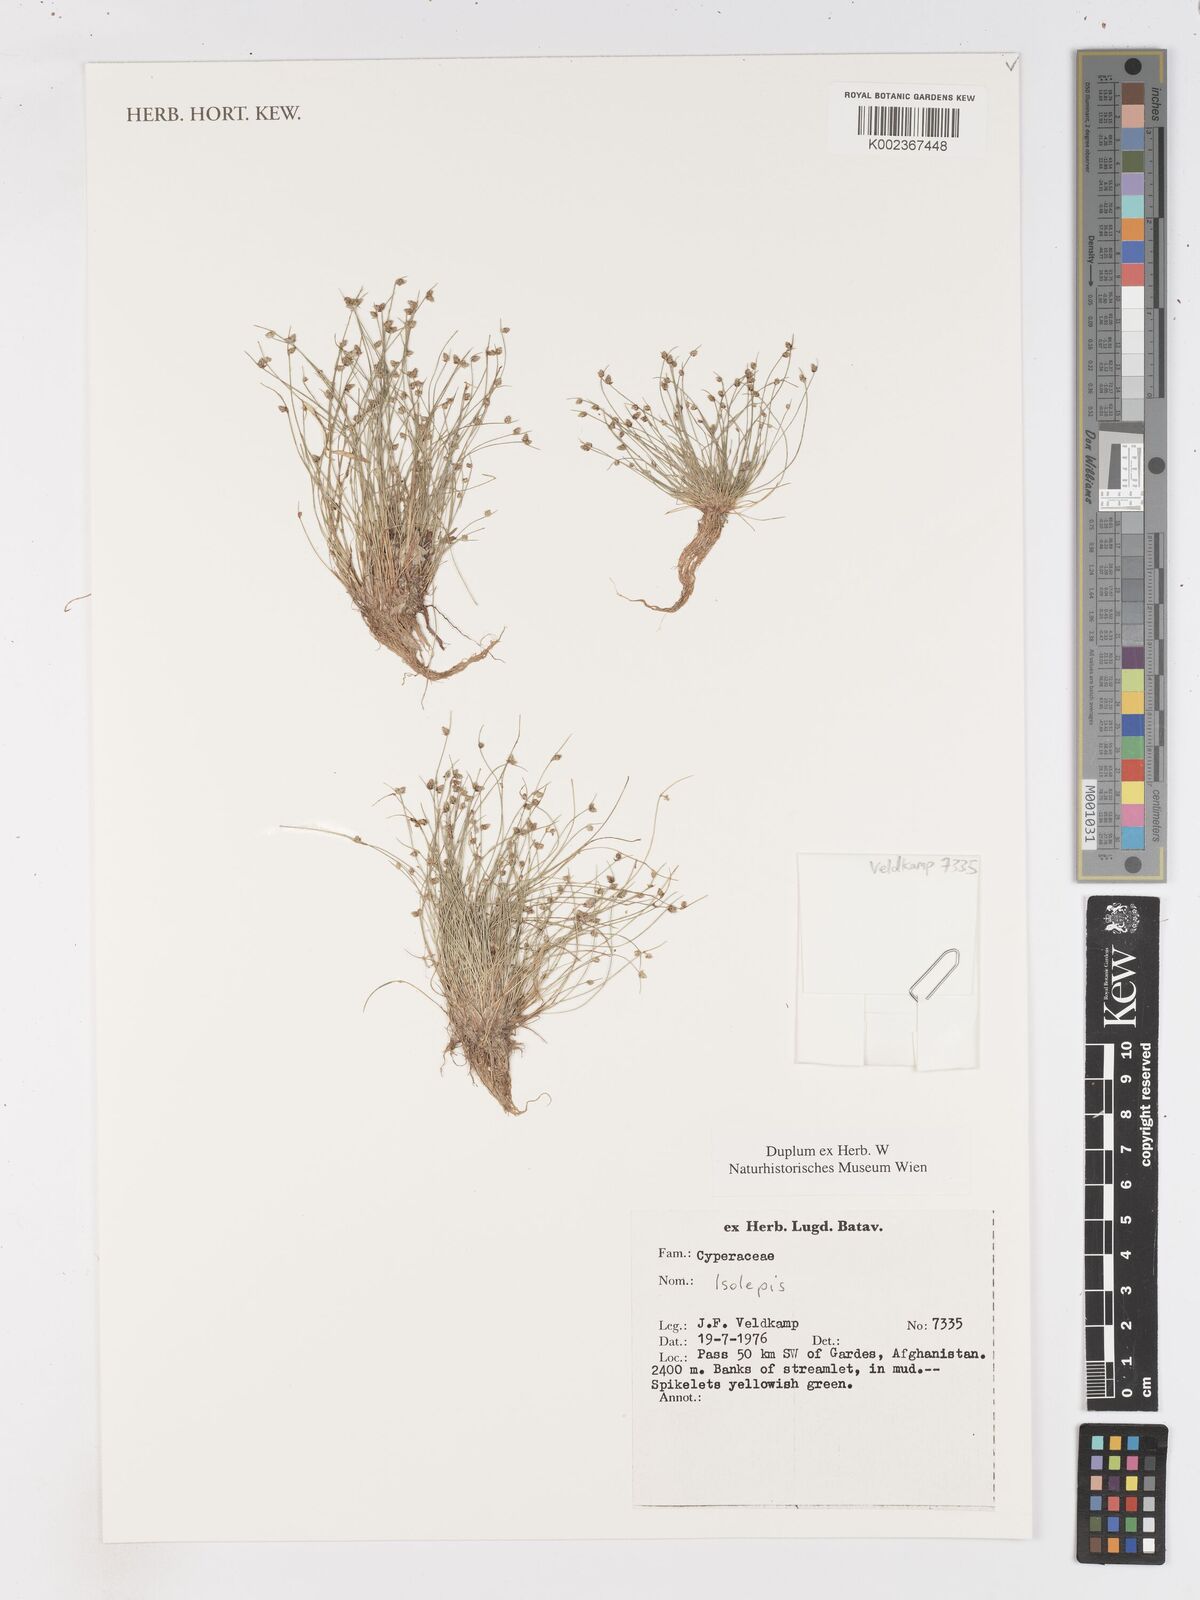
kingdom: Plantae
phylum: Tracheophyta
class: Liliopsida
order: Poales
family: Cyperaceae
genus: Isolepis
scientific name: Isolepis
